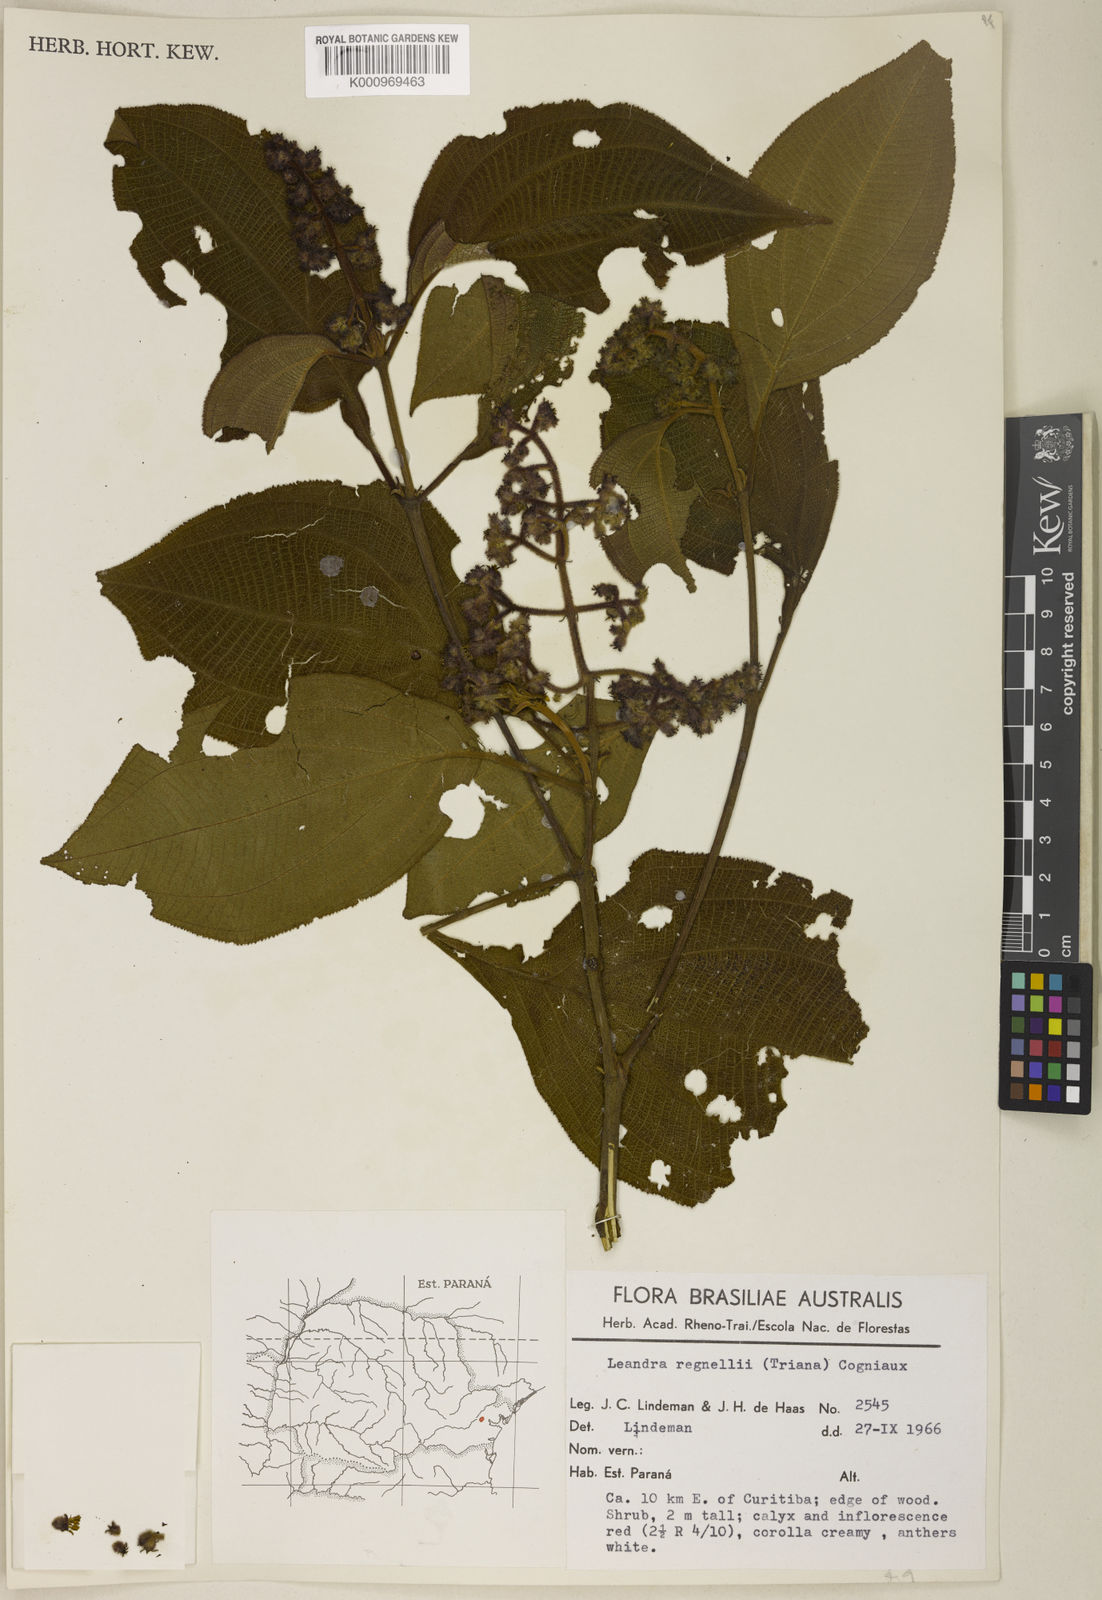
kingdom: Plantae
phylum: Tracheophyta
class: Magnoliopsida
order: Myrtales
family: Melastomataceae
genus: Miconia
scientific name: Miconia alterninervia
